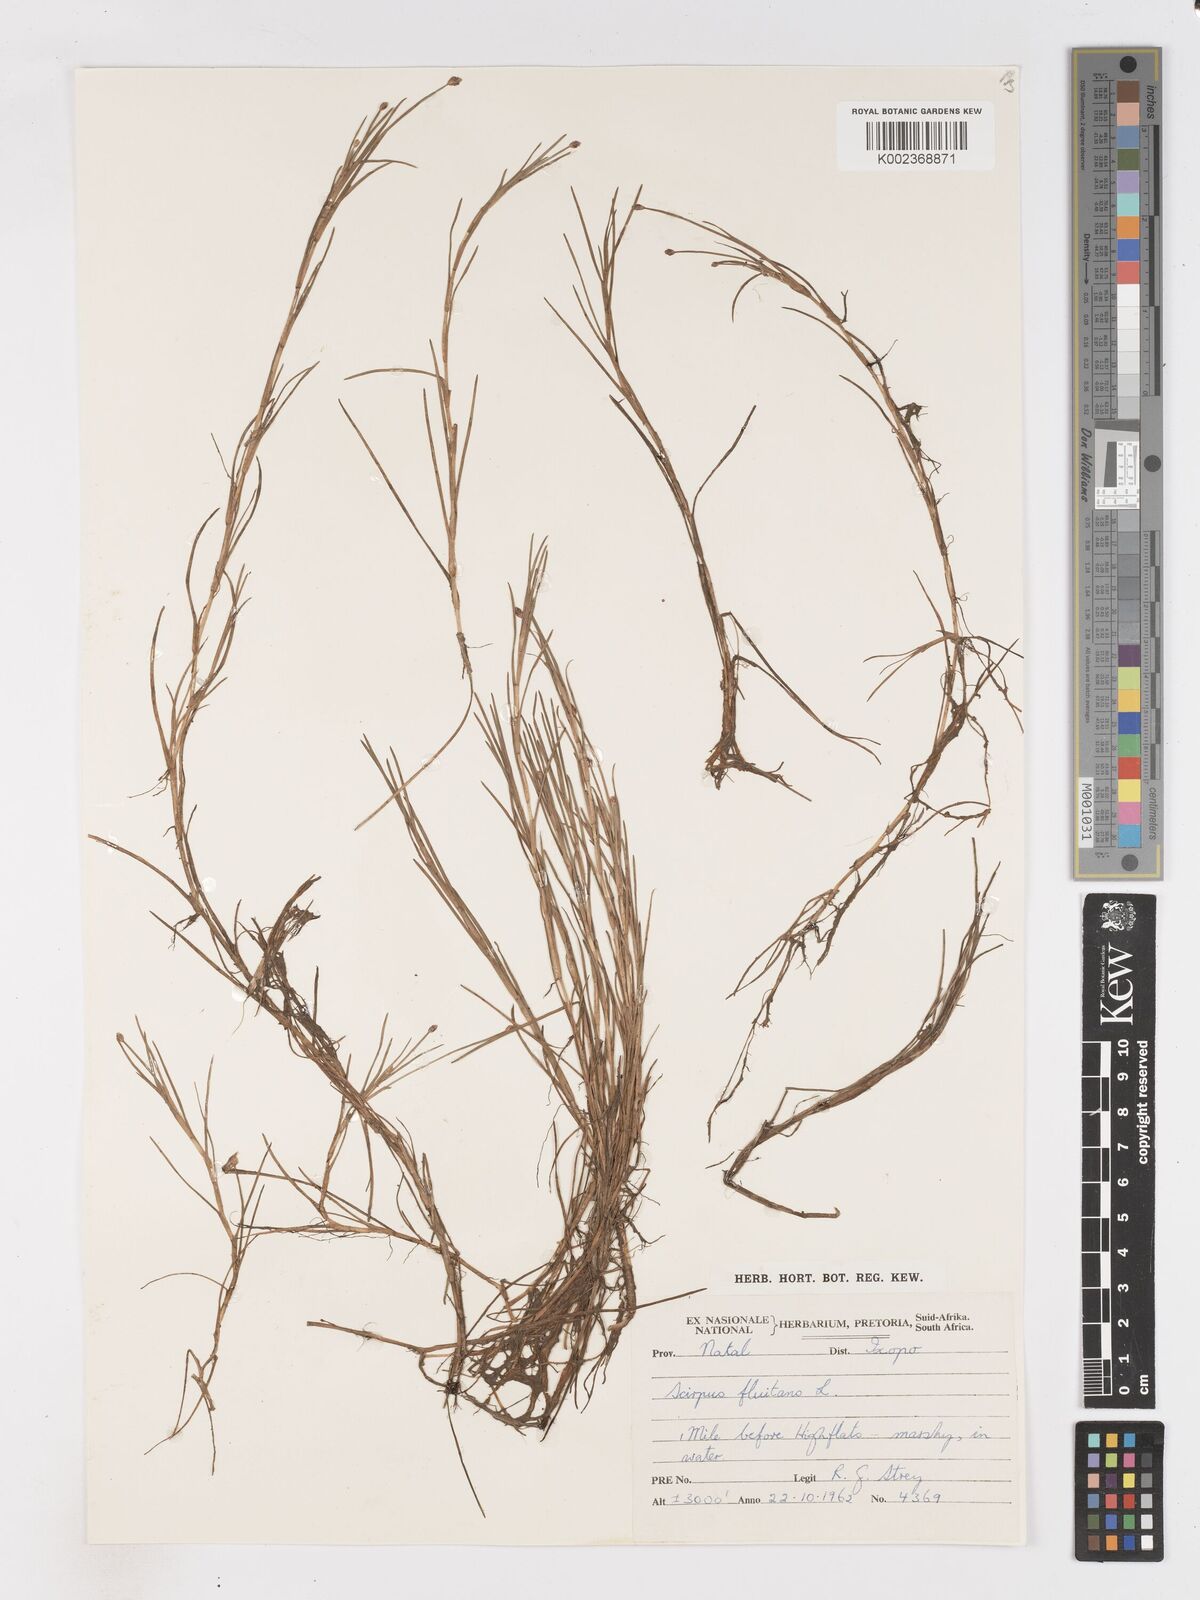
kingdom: Plantae
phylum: Tracheophyta
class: Liliopsida
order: Poales
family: Cyperaceae
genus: Isolepis
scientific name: Isolepis fluitans
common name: Floating club-rush
